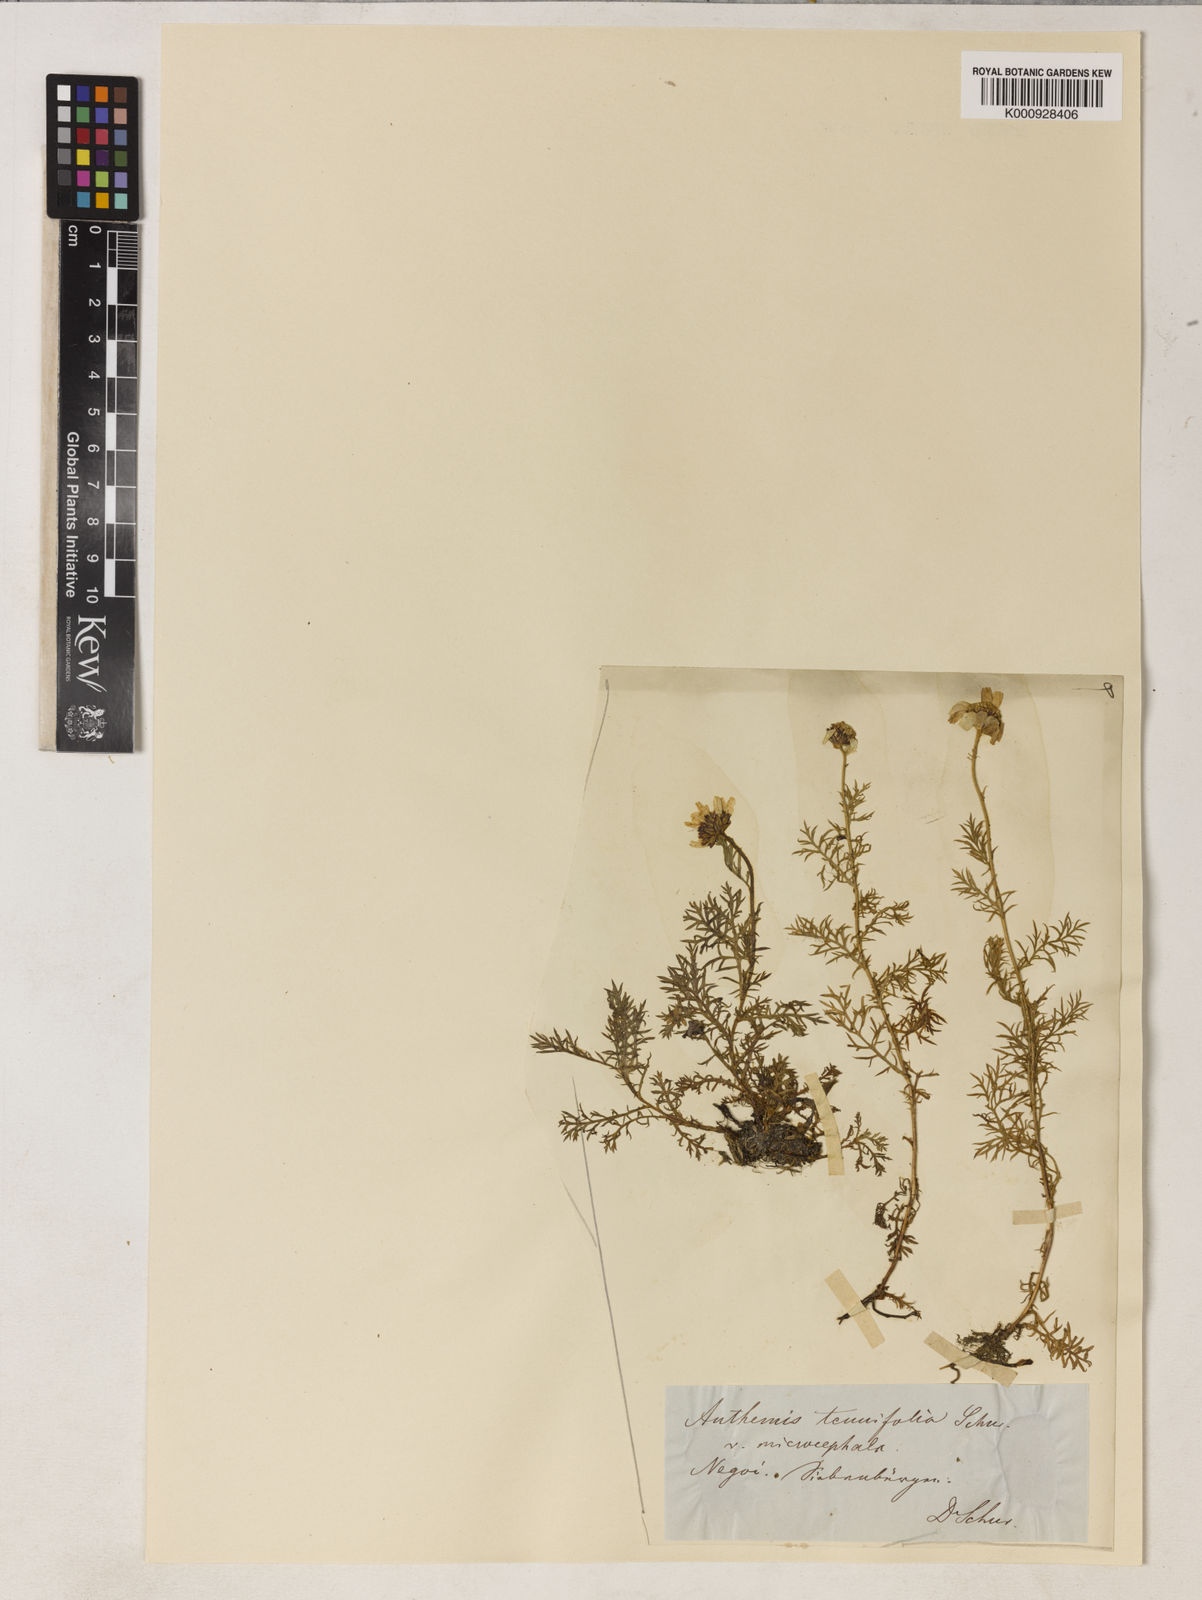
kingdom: Plantae
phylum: Tracheophyta
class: Magnoliopsida
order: Asterales
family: Asteraceae
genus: Achillea
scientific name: Achillea tenuifolia
